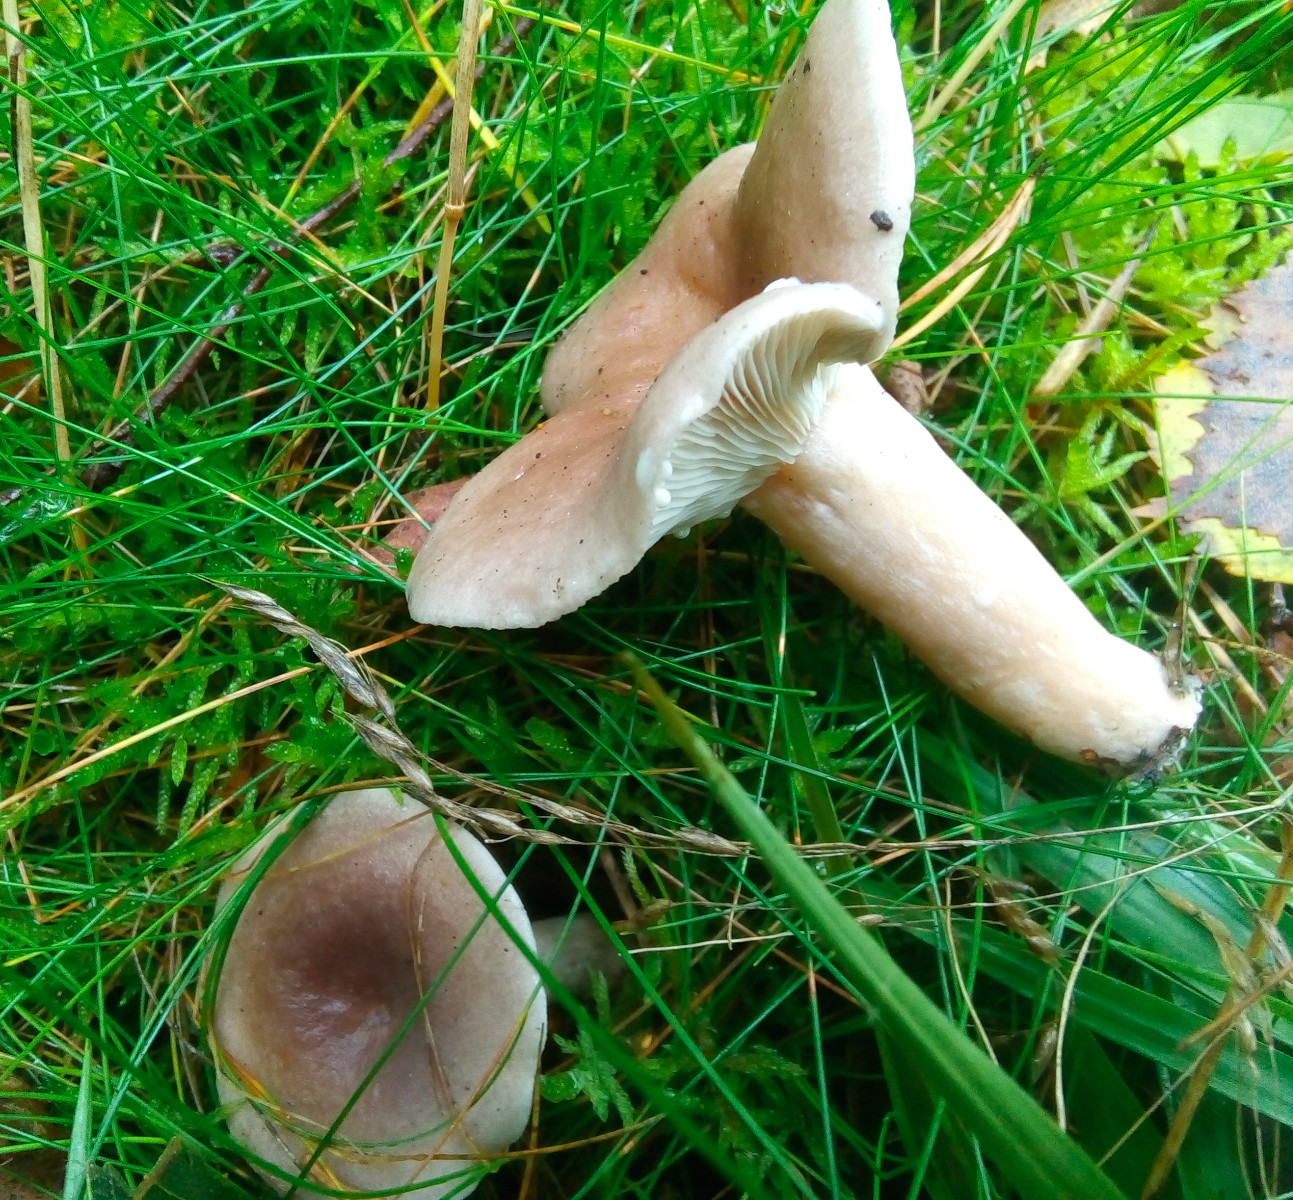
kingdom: Fungi
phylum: Basidiomycota
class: Agaricomycetes
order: Russulales
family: Russulaceae
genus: Lactarius
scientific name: Lactarius vietus
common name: violetgrå mælkehat
